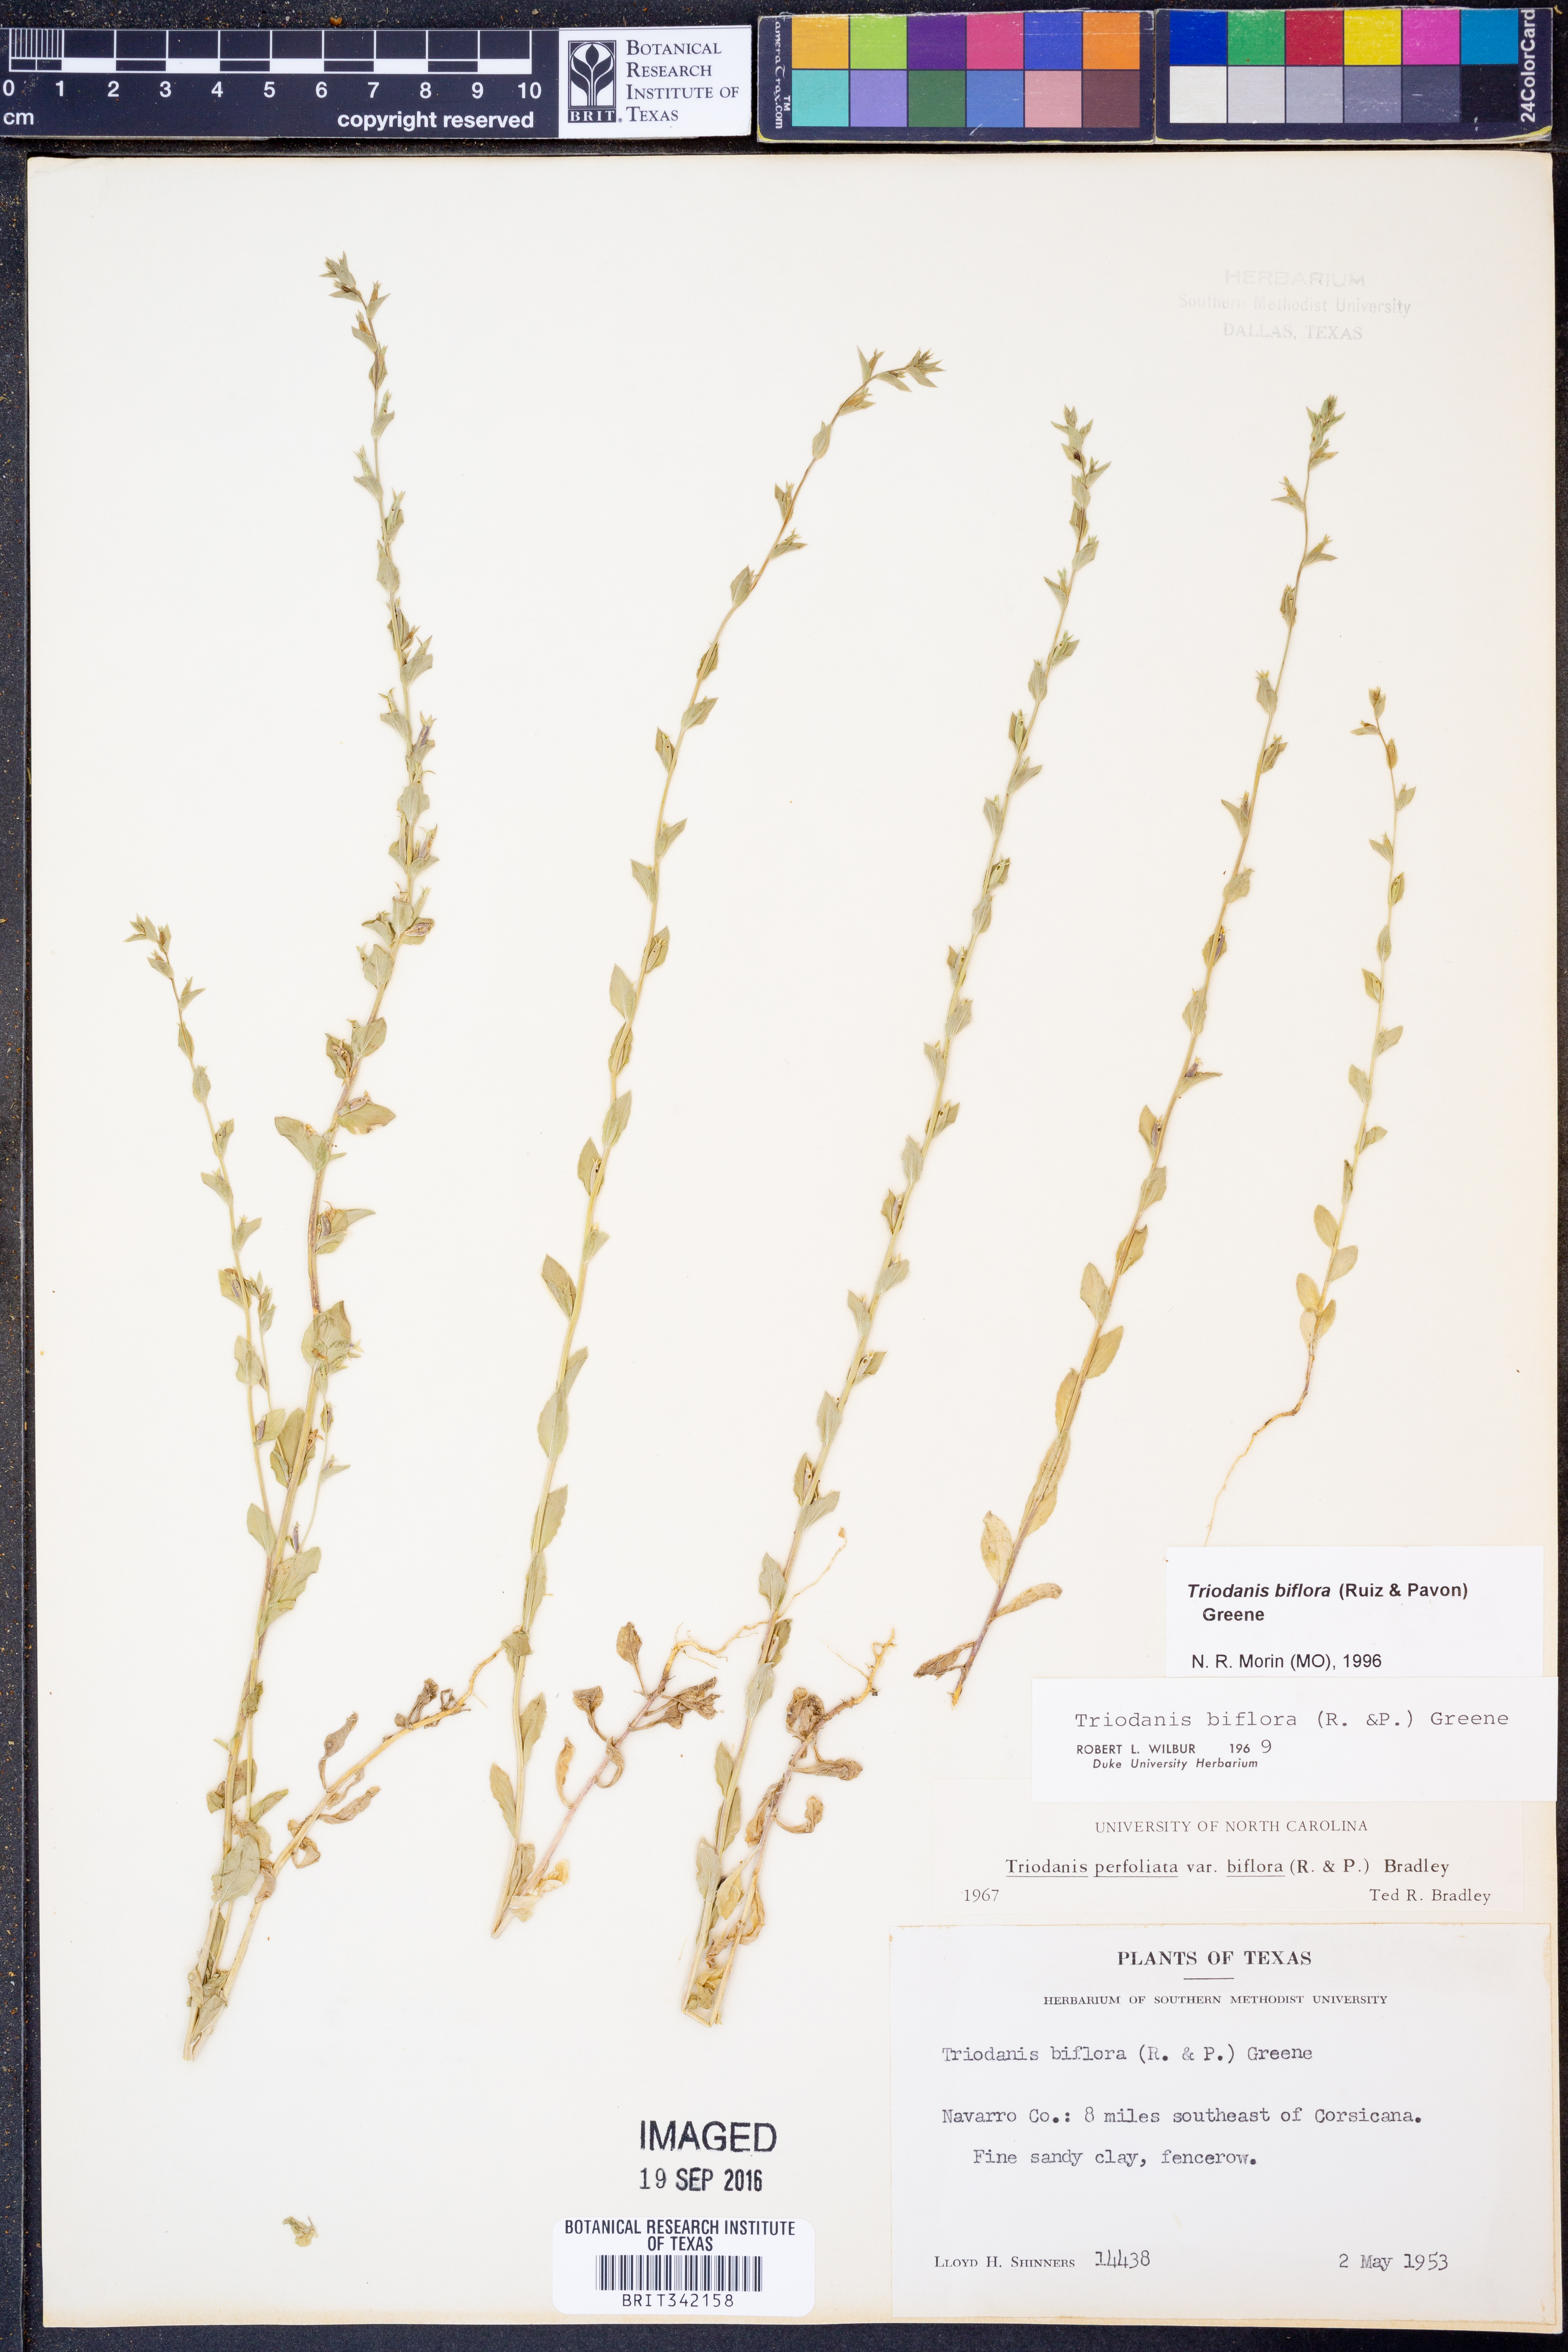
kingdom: Plantae
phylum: Tracheophyta
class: Magnoliopsida
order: Asterales
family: Campanulaceae
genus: Triodanis
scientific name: Triodanis perfoliata
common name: Clasping venus' looking-glass
